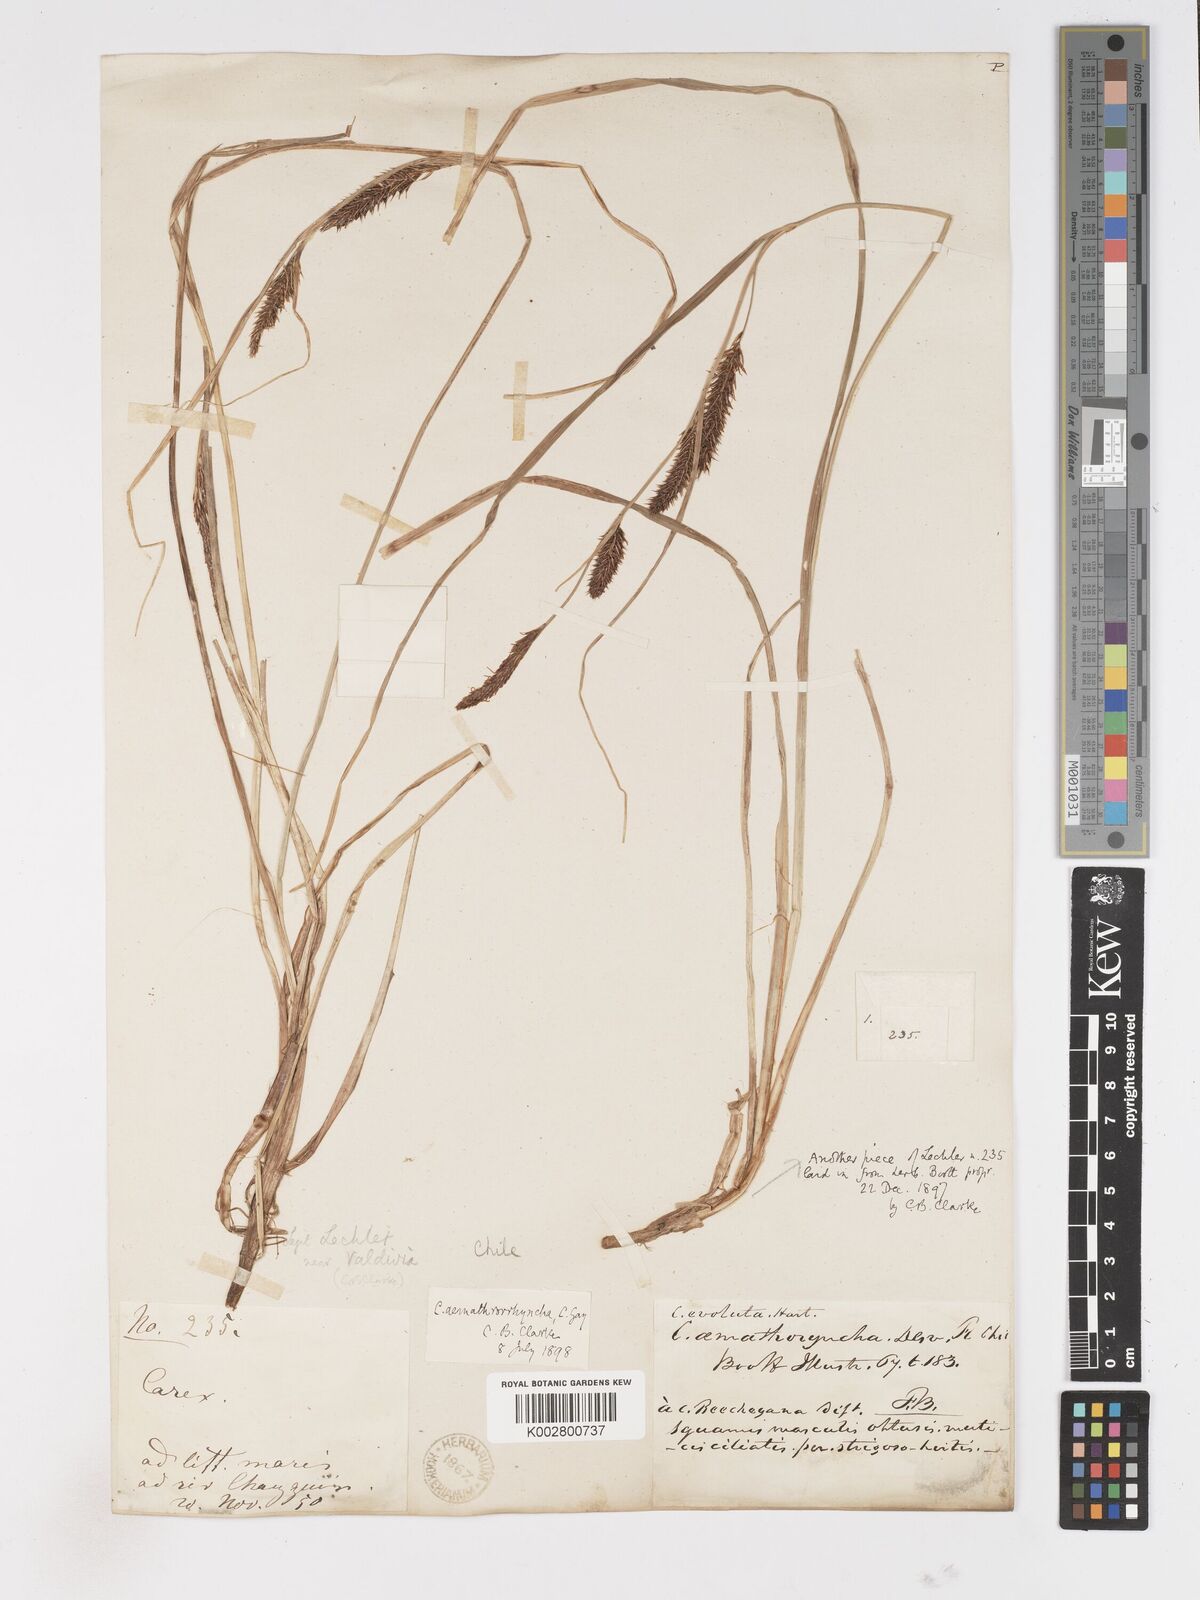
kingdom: Plantae
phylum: Tracheophyta
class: Liliopsida
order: Poales
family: Cyperaceae
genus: Carex
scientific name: Carex aematorhyncha
